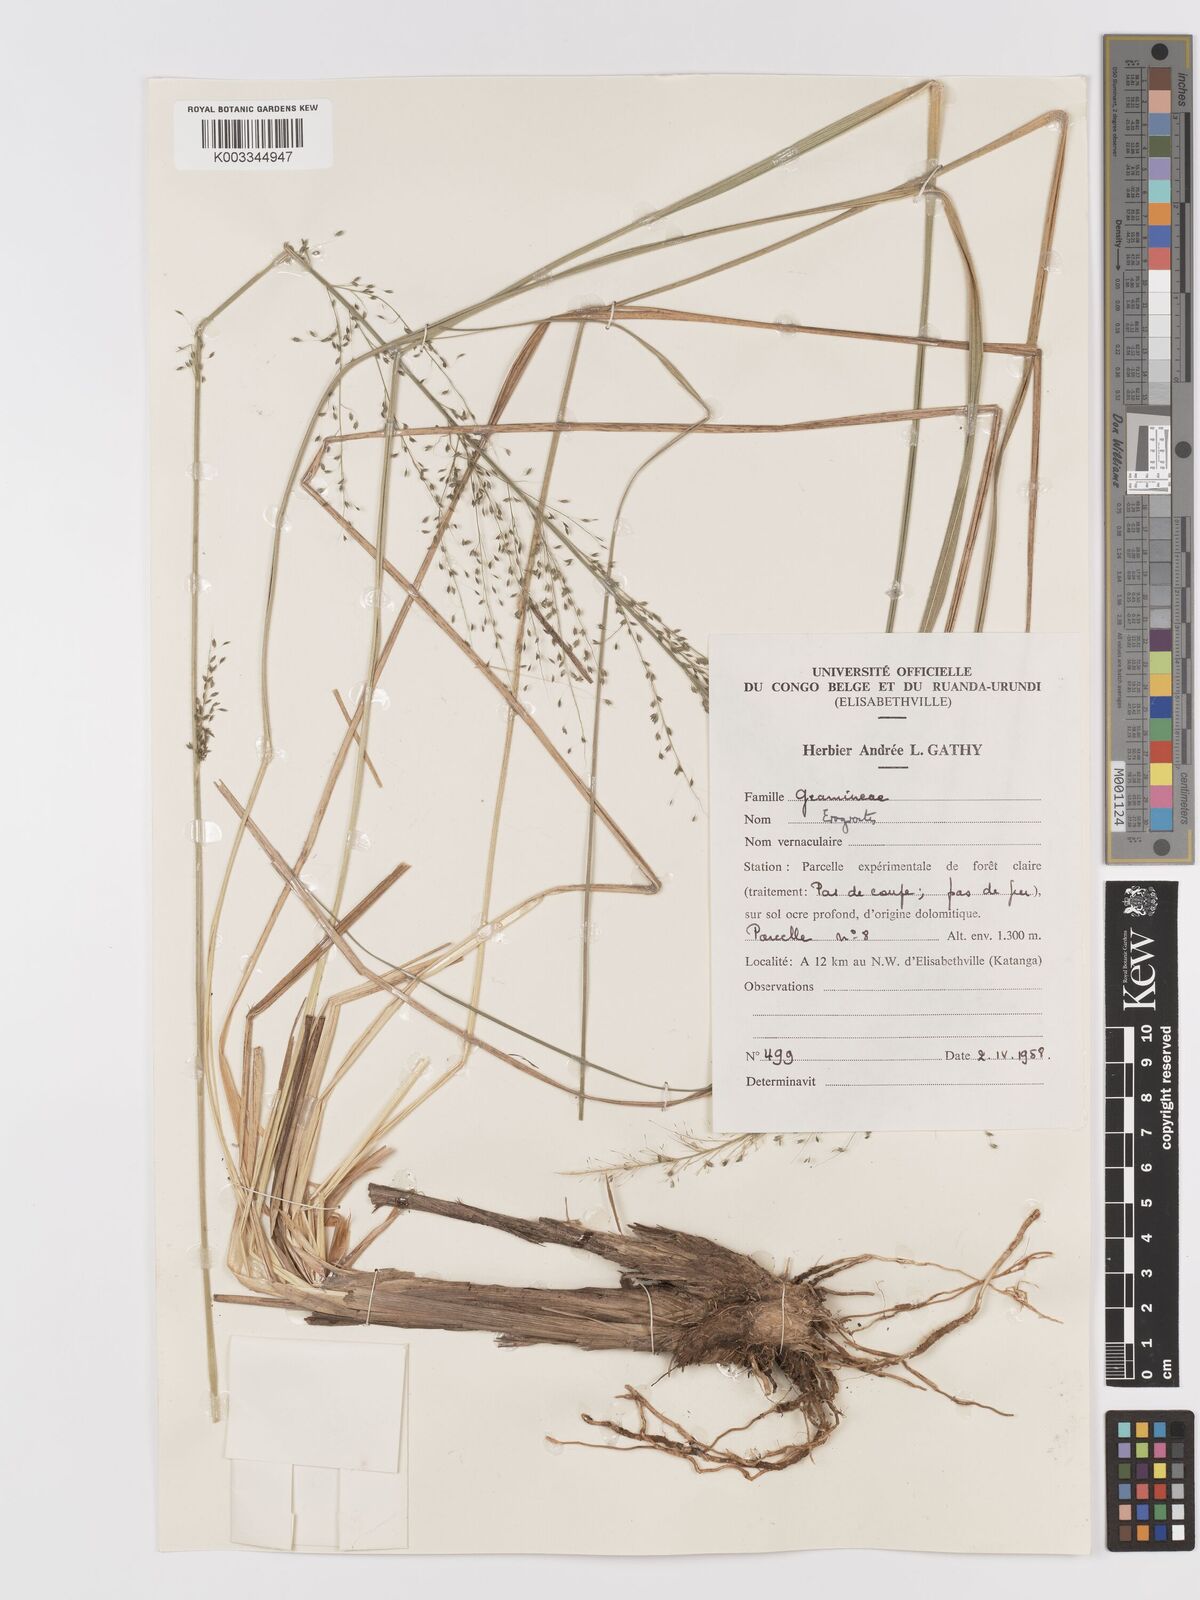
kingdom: Plantae
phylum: Tracheophyta
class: Liliopsida
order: Poales
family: Poaceae
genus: Eragrostis
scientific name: Eragrostis mollior
